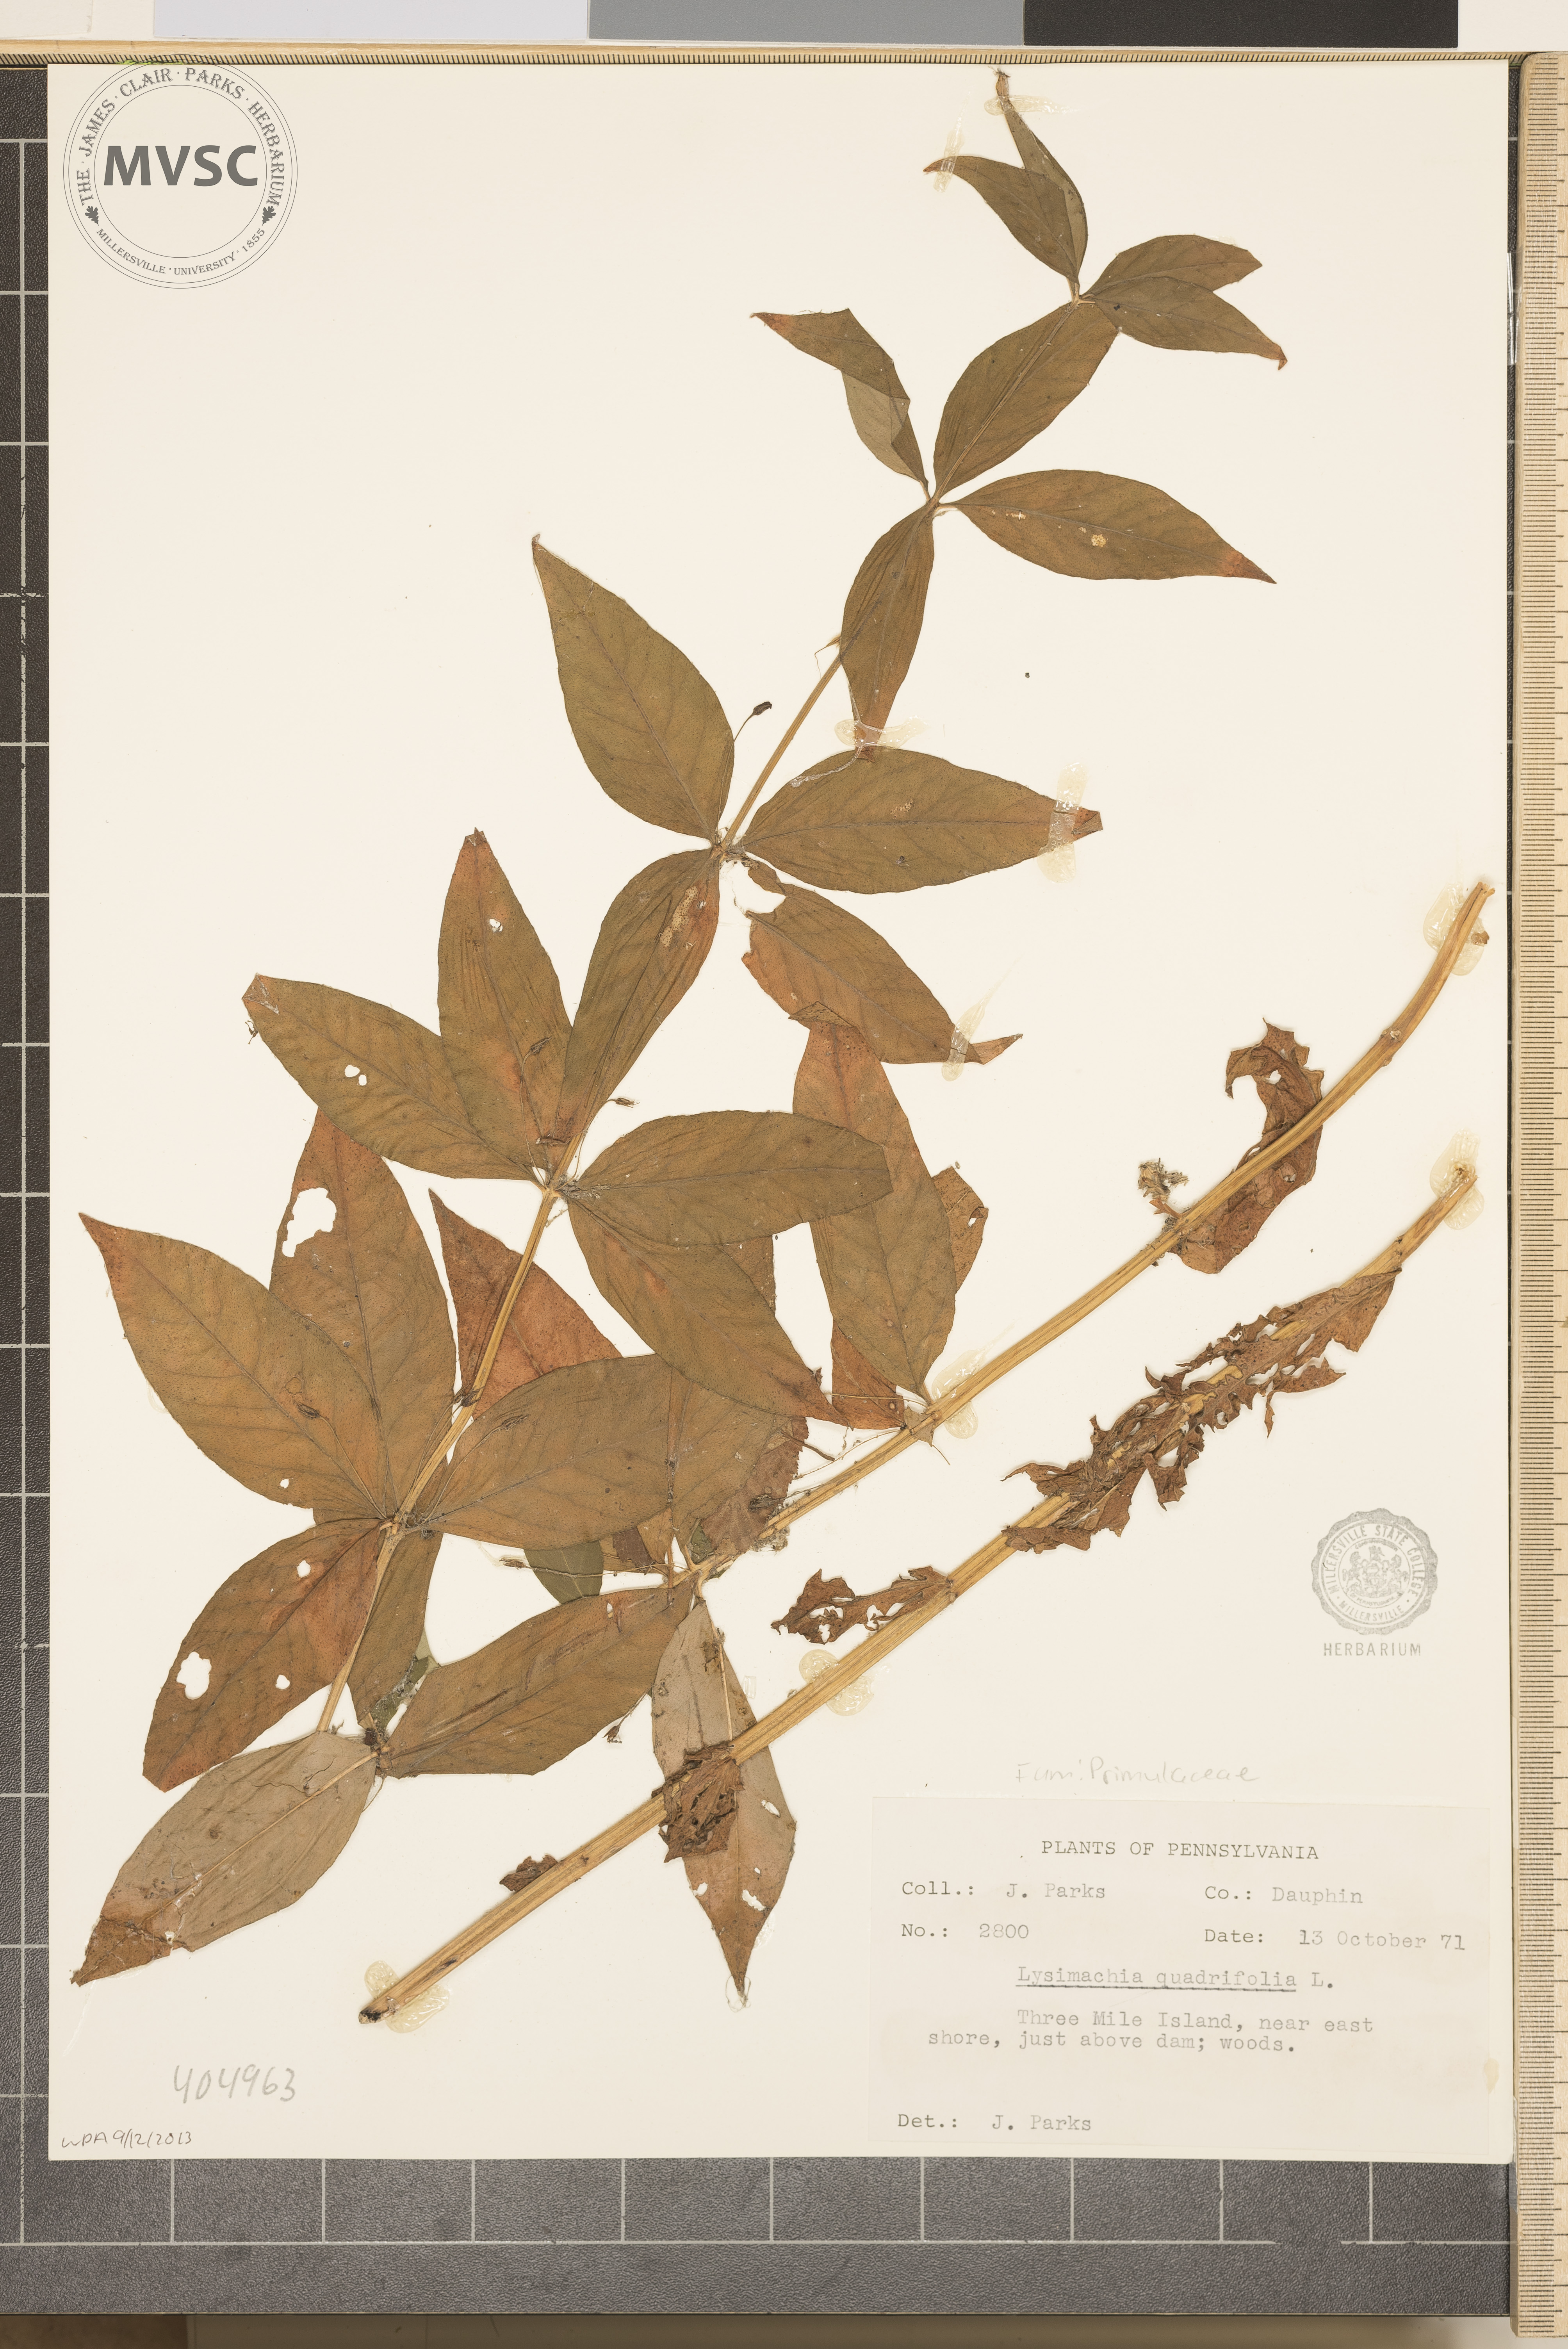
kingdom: Plantae
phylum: Tracheophyta
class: Magnoliopsida
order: Ericales
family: Primulaceae
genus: Lysimachia
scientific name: Lysimachia quadrifolia
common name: Whorled loosestrife
